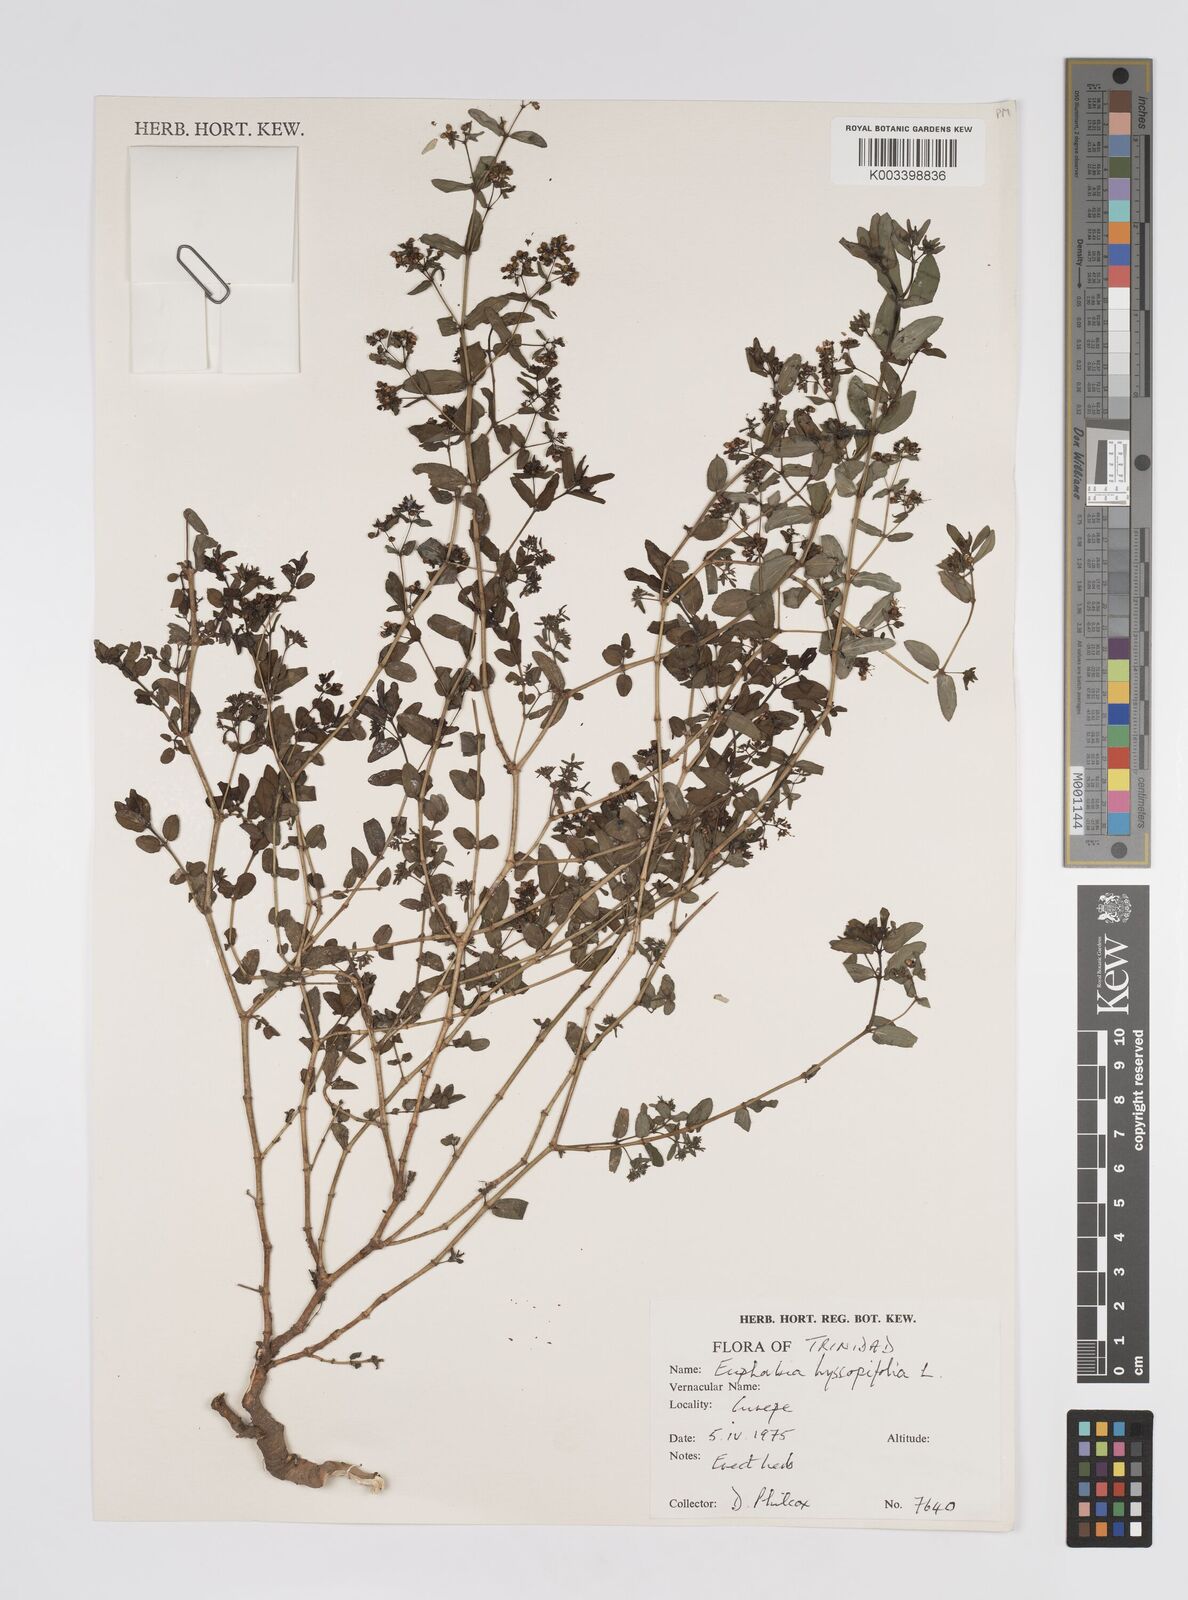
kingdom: Plantae
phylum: Tracheophyta
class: Magnoliopsida
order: Malpighiales
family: Euphorbiaceae
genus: Euphorbia
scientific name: Euphorbia hyssopifolia
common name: Hyssopleaf sandmat
